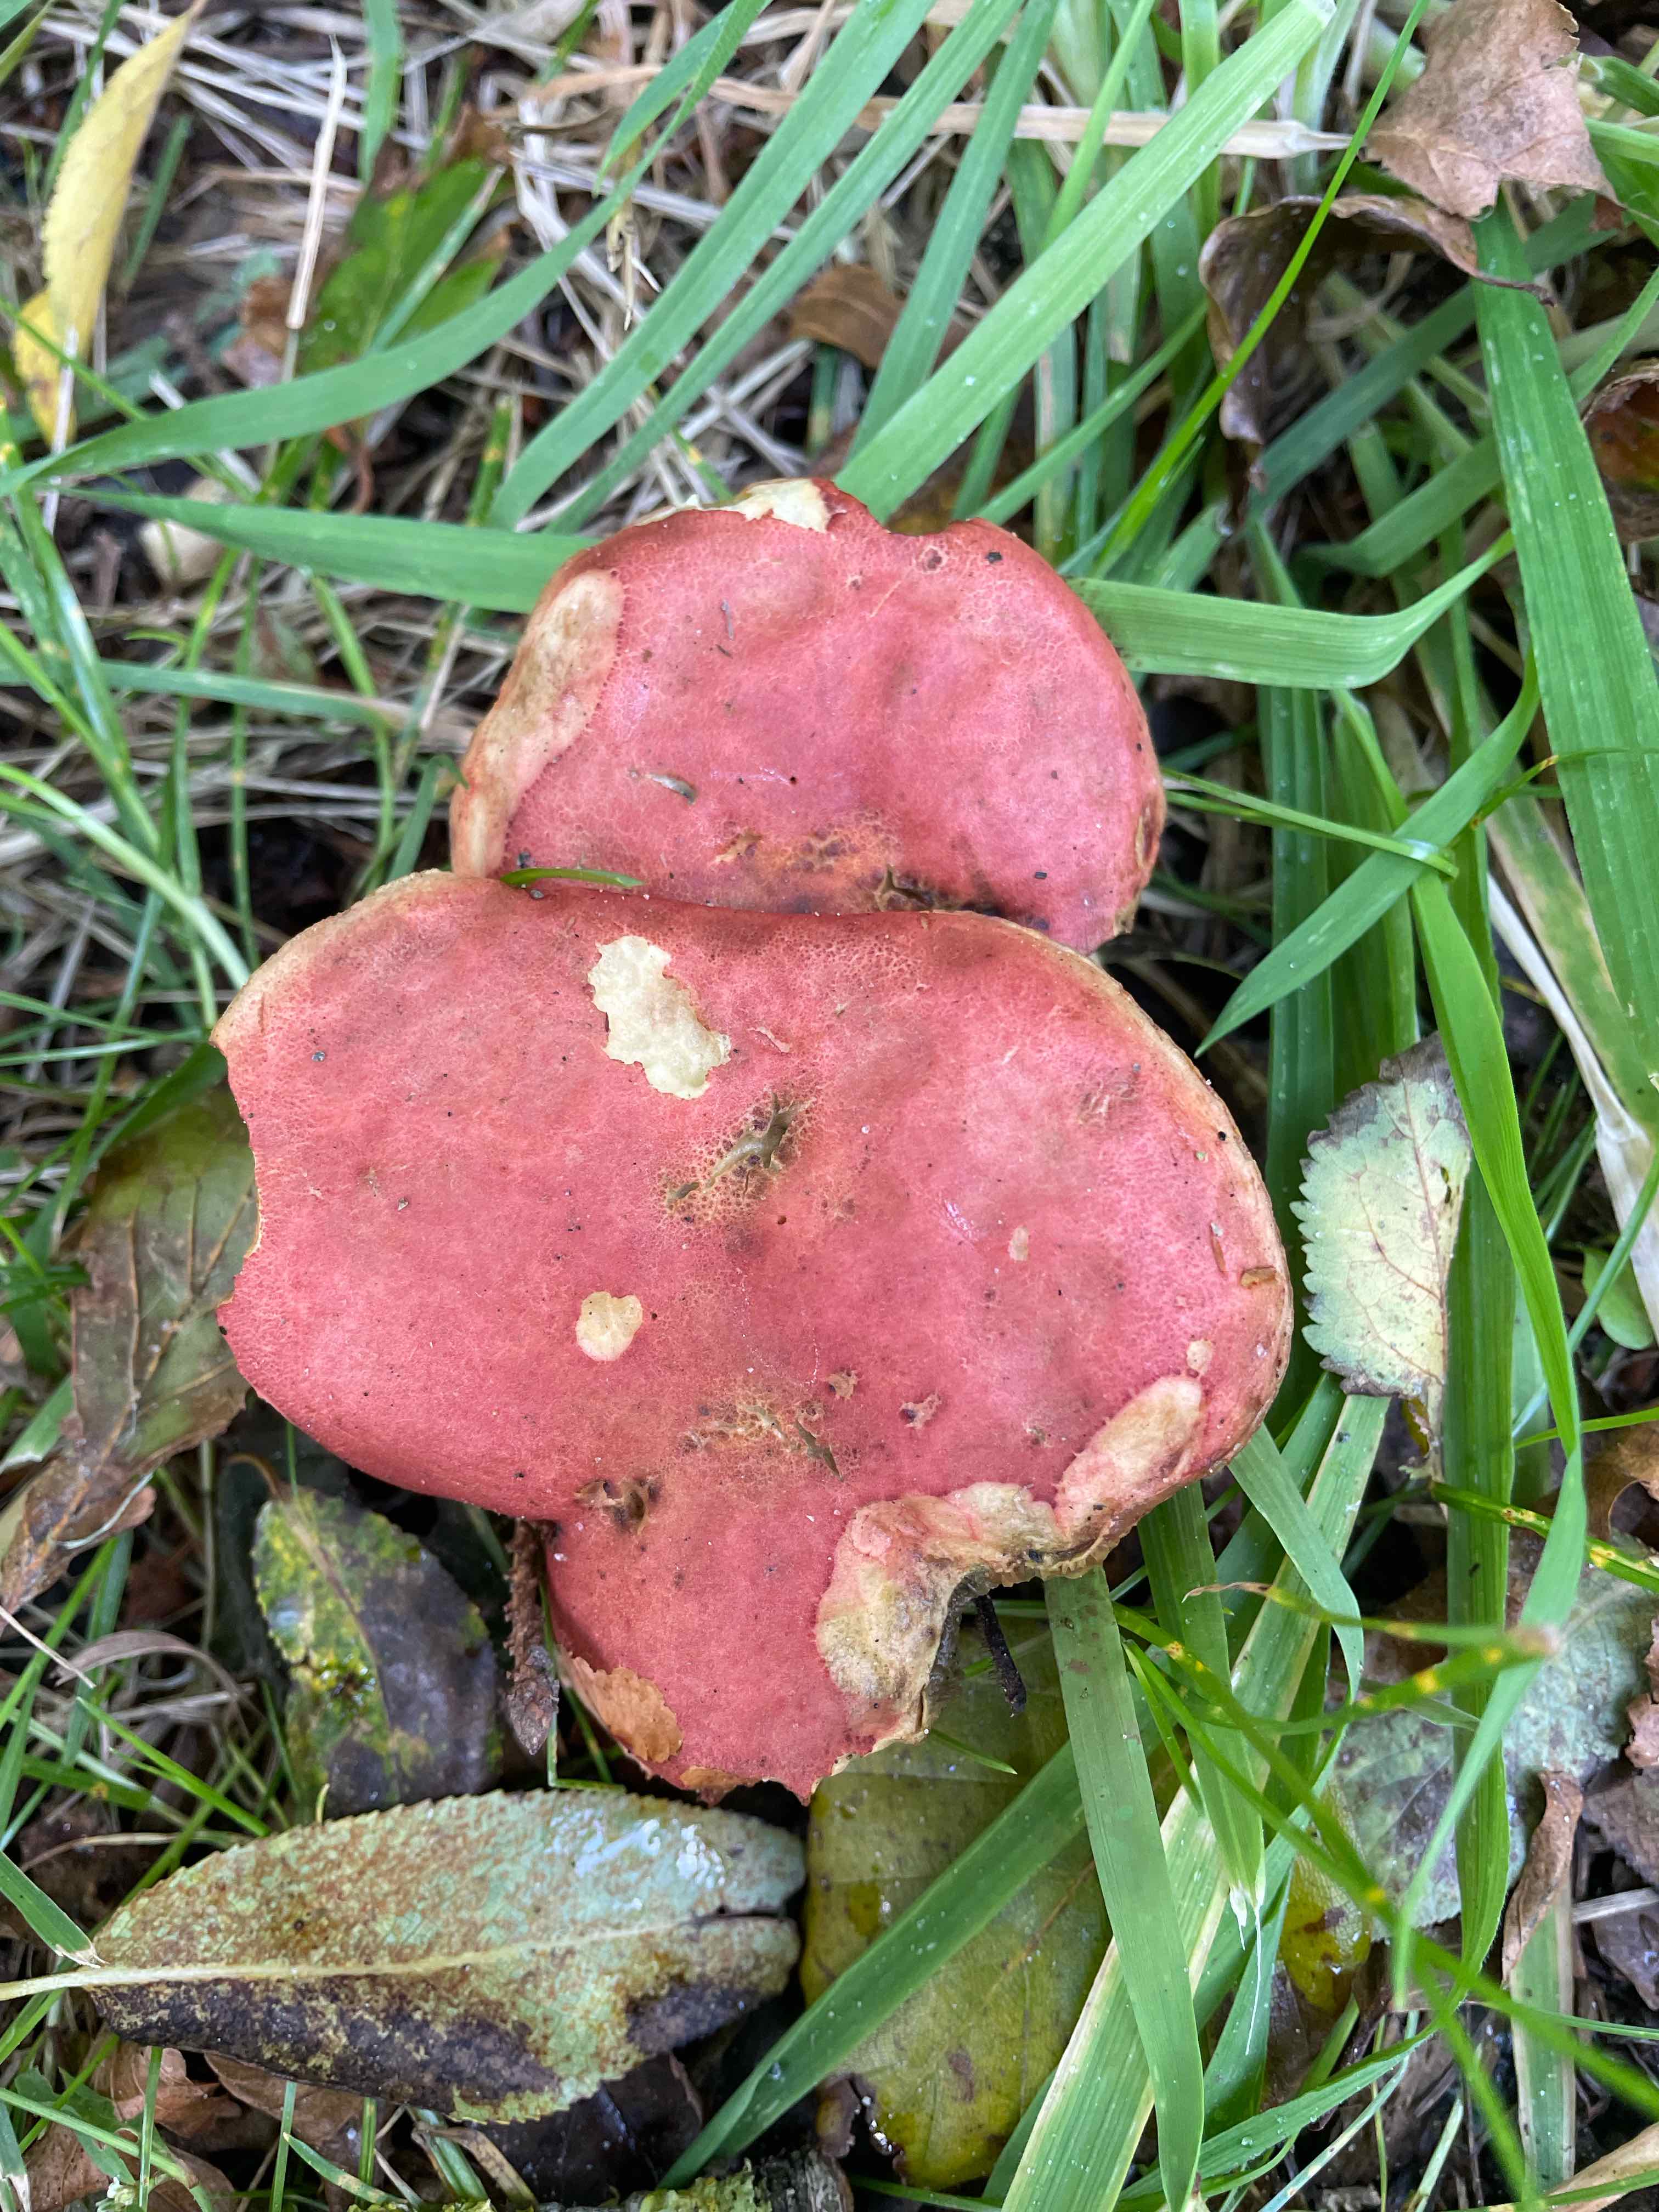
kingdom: Fungi
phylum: Basidiomycota
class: Agaricomycetes
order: Boletales
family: Boletaceae
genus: Hortiboletus
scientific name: Hortiboletus rubellus
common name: blodrød rørhat
